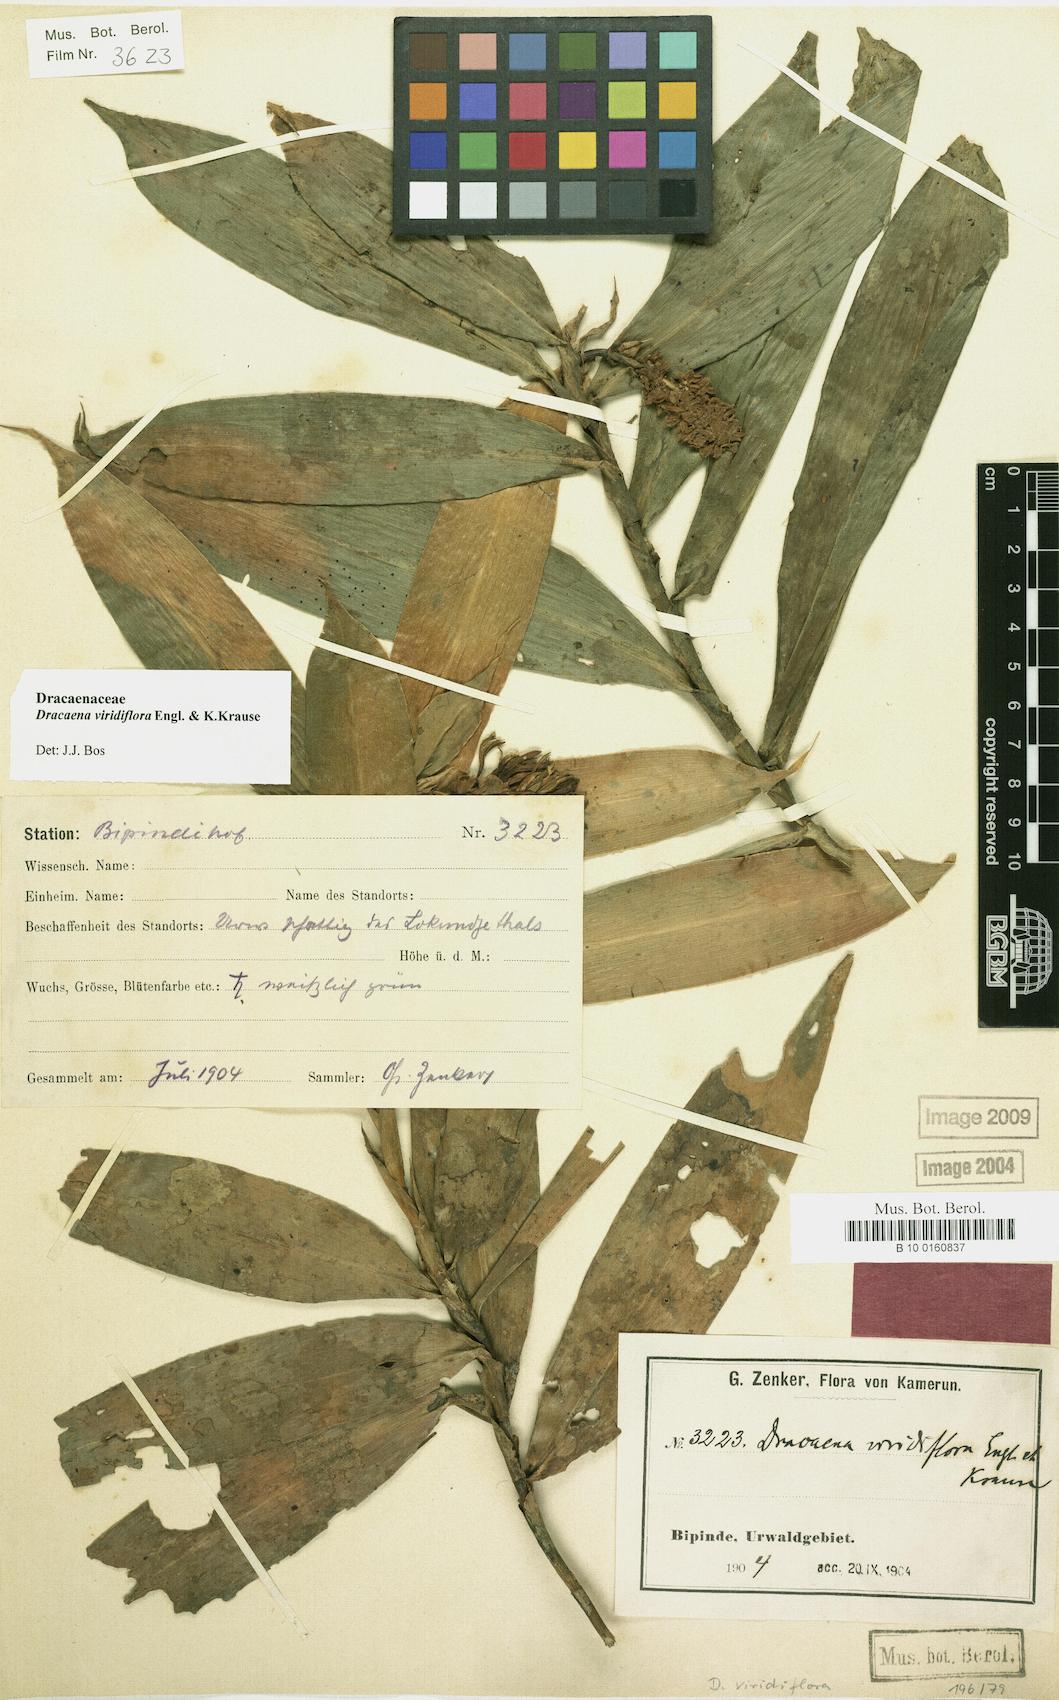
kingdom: Plantae
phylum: Tracheophyta
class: Liliopsida
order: Asparagales
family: Asparagaceae
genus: Dracaena
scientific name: Dracaena viridiflora
